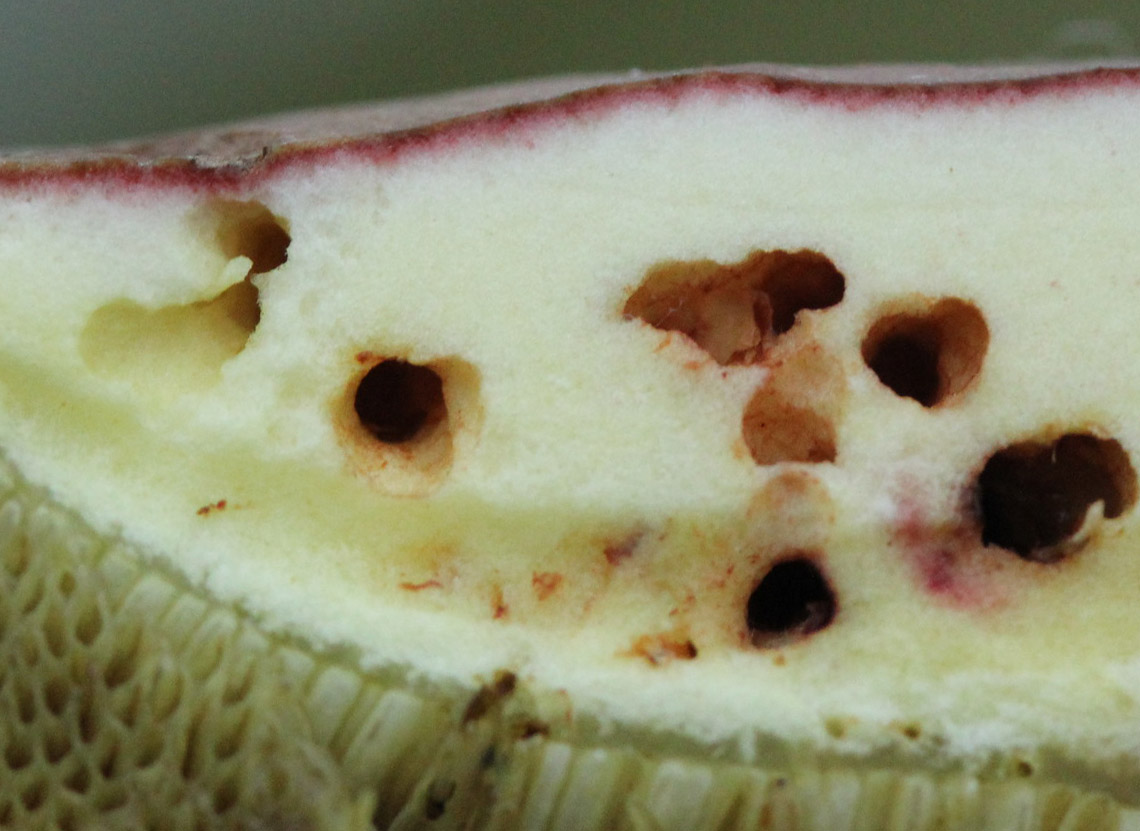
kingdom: Fungi
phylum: Basidiomycota
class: Agaricomycetes
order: Boletales
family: Boletaceae
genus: Xerocomellus
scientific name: Xerocomellus pruinatus
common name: dugget rørhat
